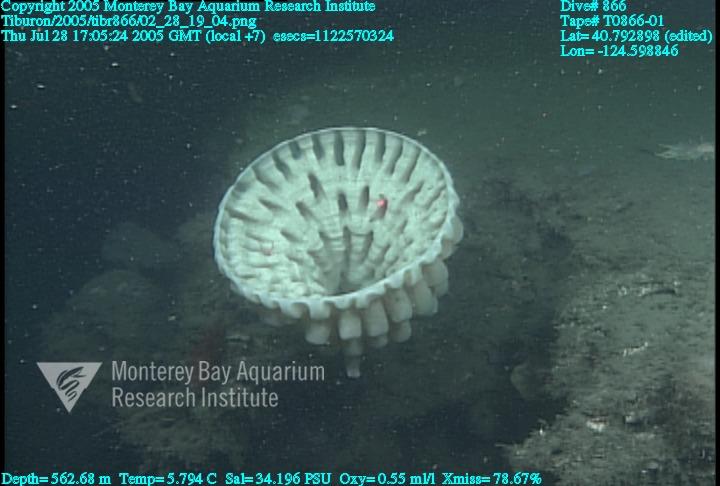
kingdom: Animalia
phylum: Porifera
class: Hexactinellida
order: Sceptrulophora
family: Aphrocallistidae
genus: Heterochone
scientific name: Heterochone calyx
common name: Fingered goblet glass sponge
